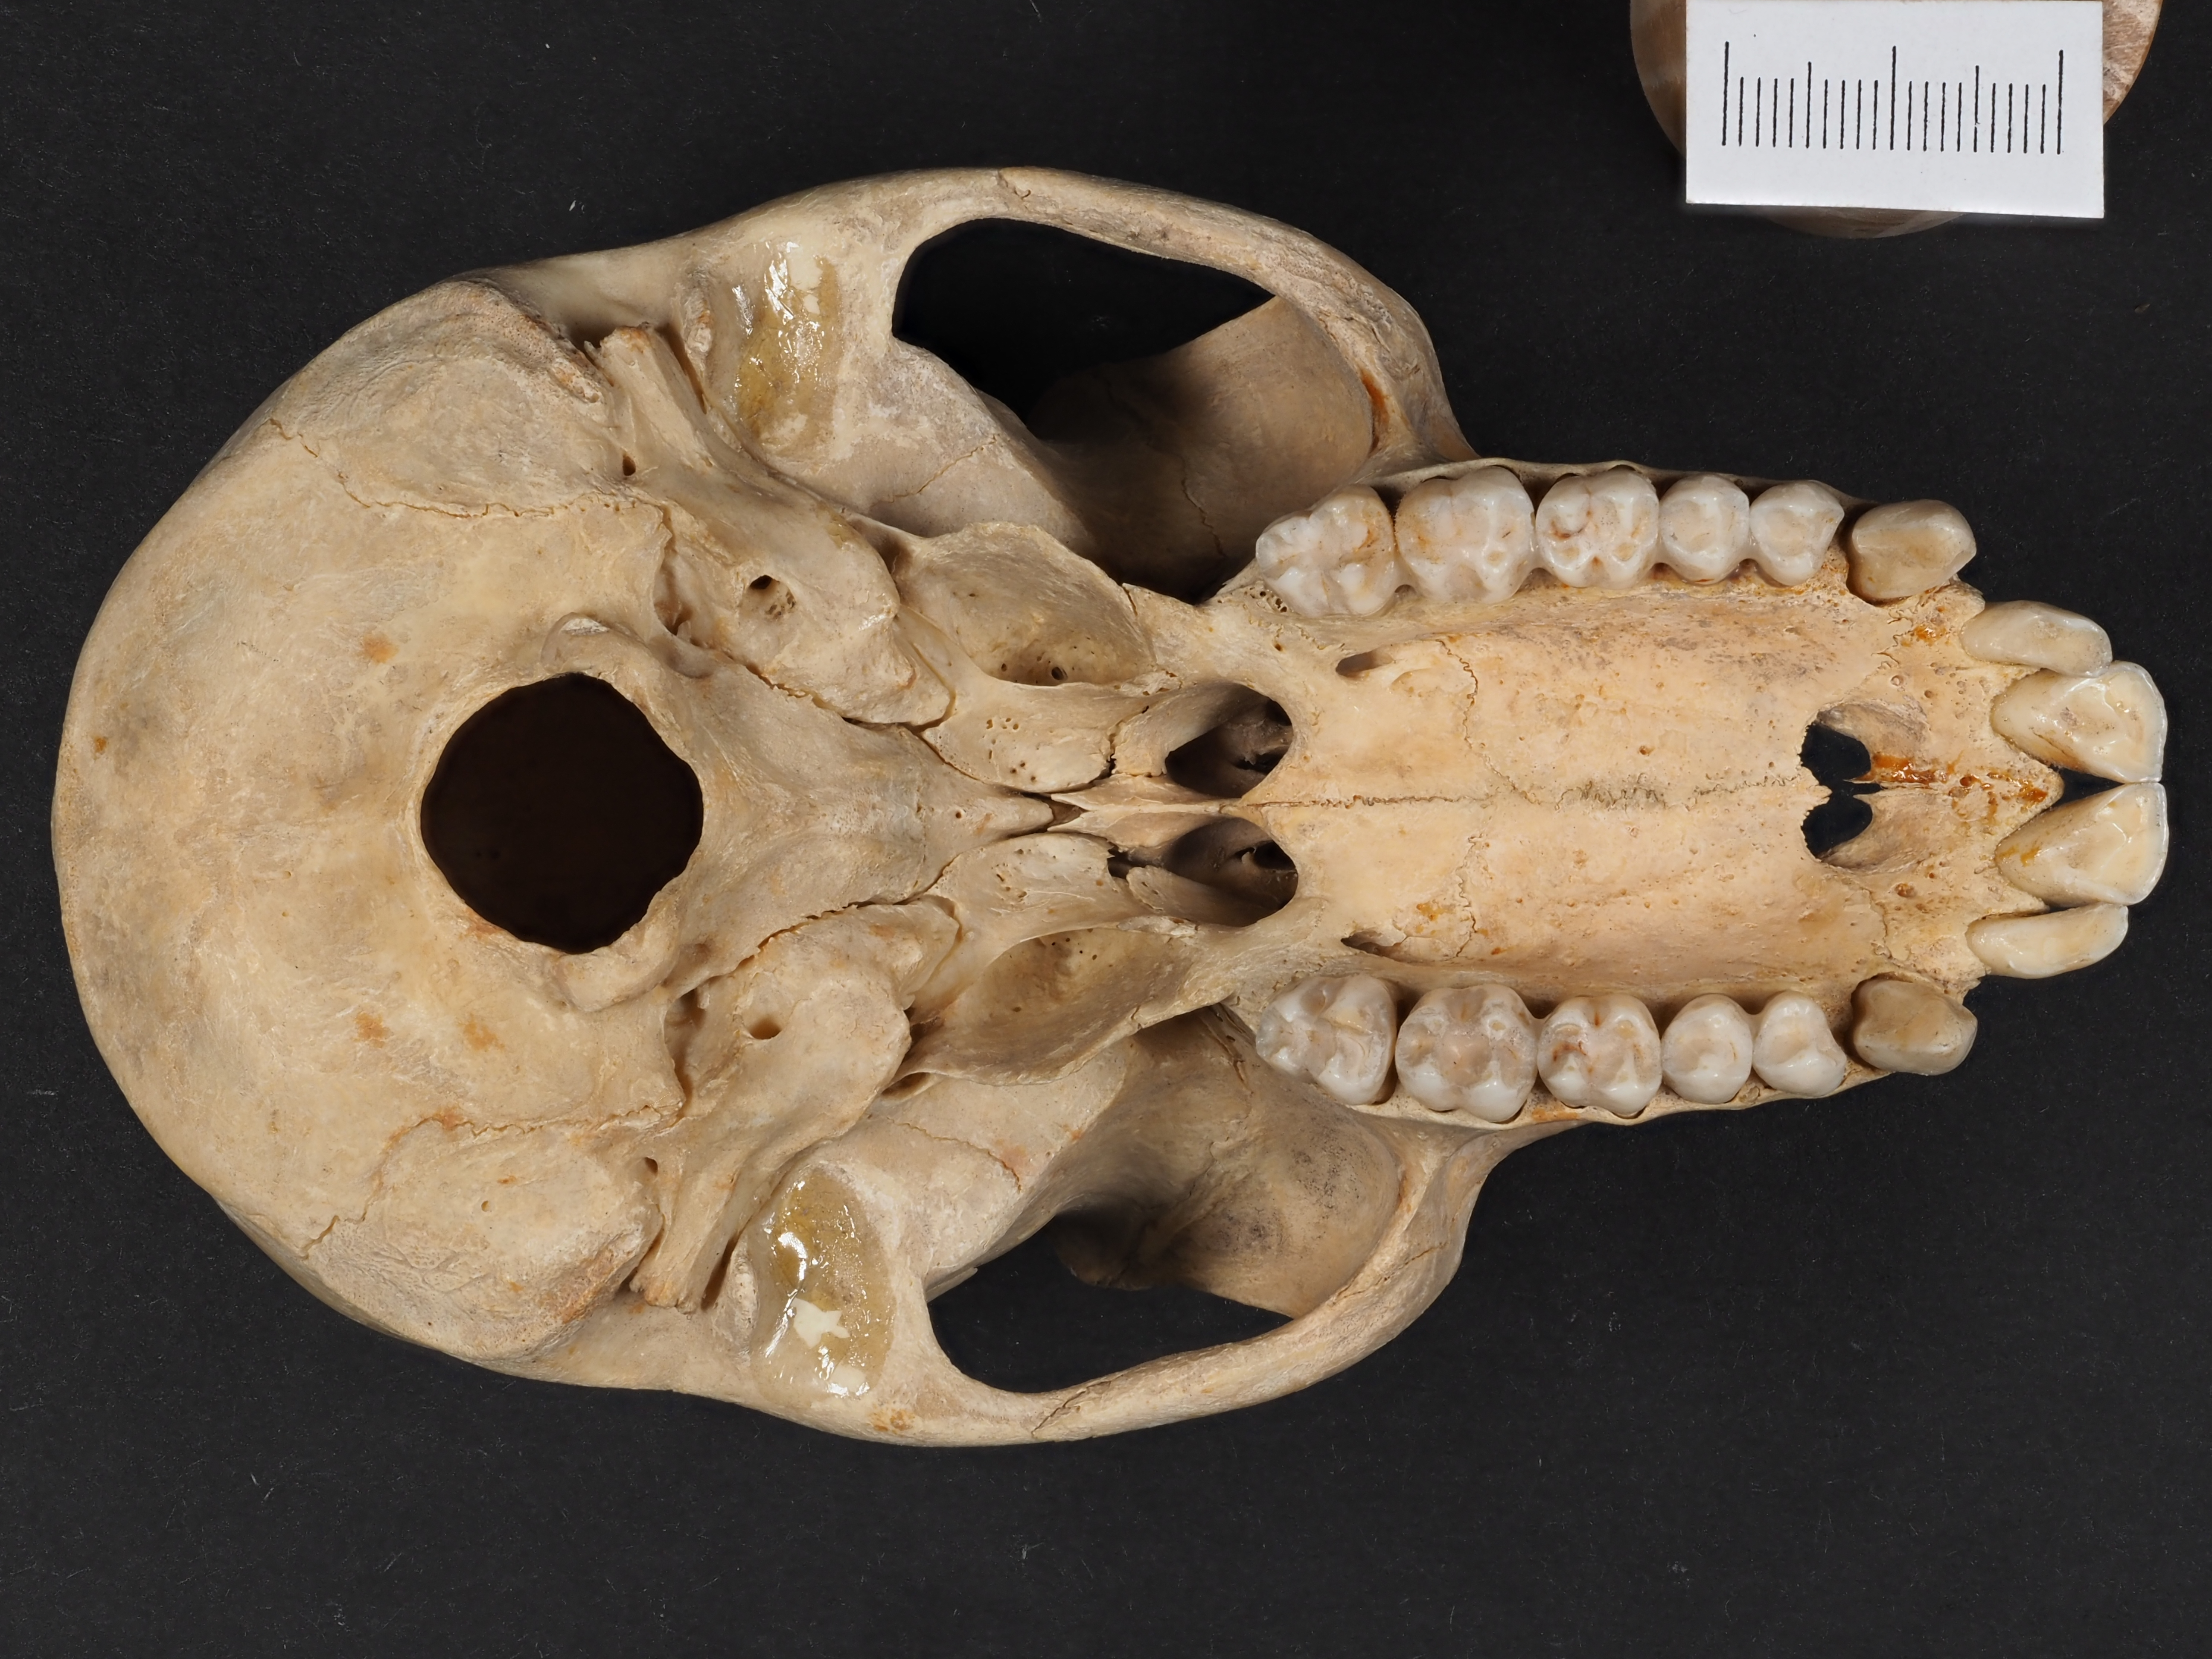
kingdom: Animalia
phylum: Chordata
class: Mammalia
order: Primates
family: Cercopithecidae
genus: Cercopithecus
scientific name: Cercopithecus mona
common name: Mona monkey
